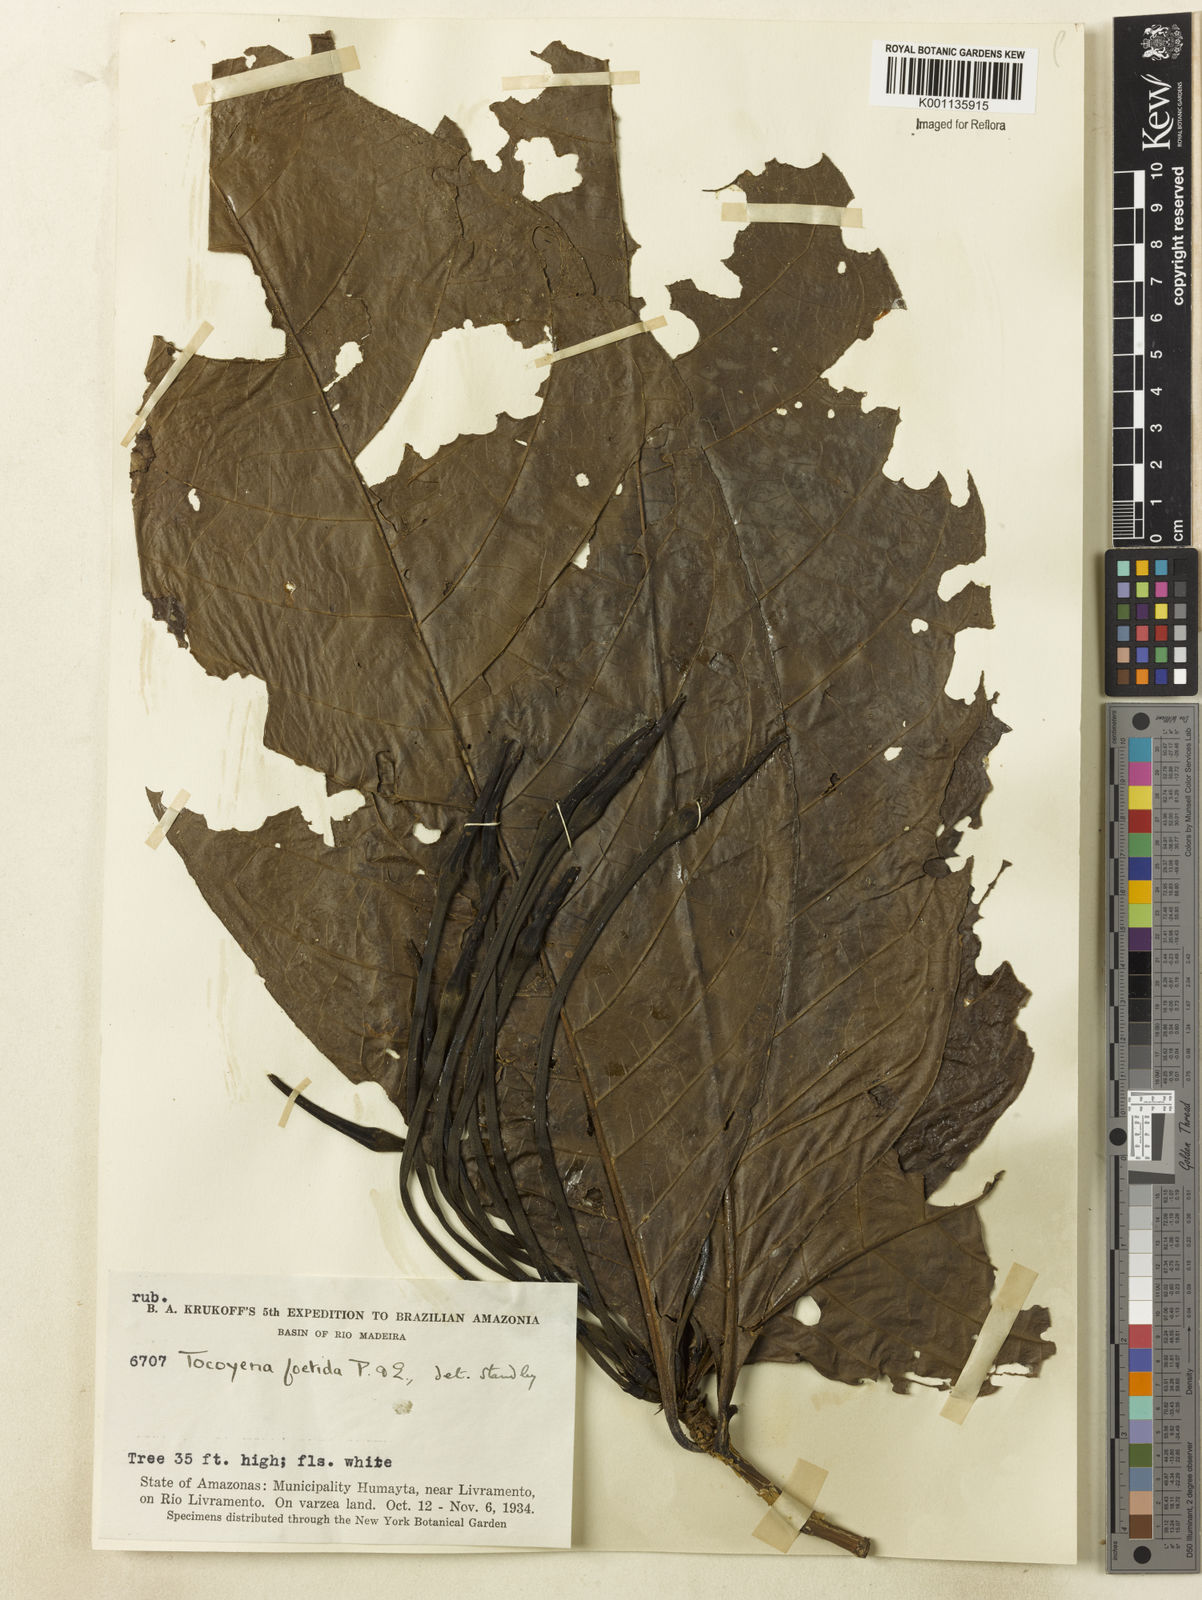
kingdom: Plantae
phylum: Tracheophyta
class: Magnoliopsida
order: Gentianales
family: Rubiaceae
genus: Tocoyena
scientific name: Tocoyena foetida
